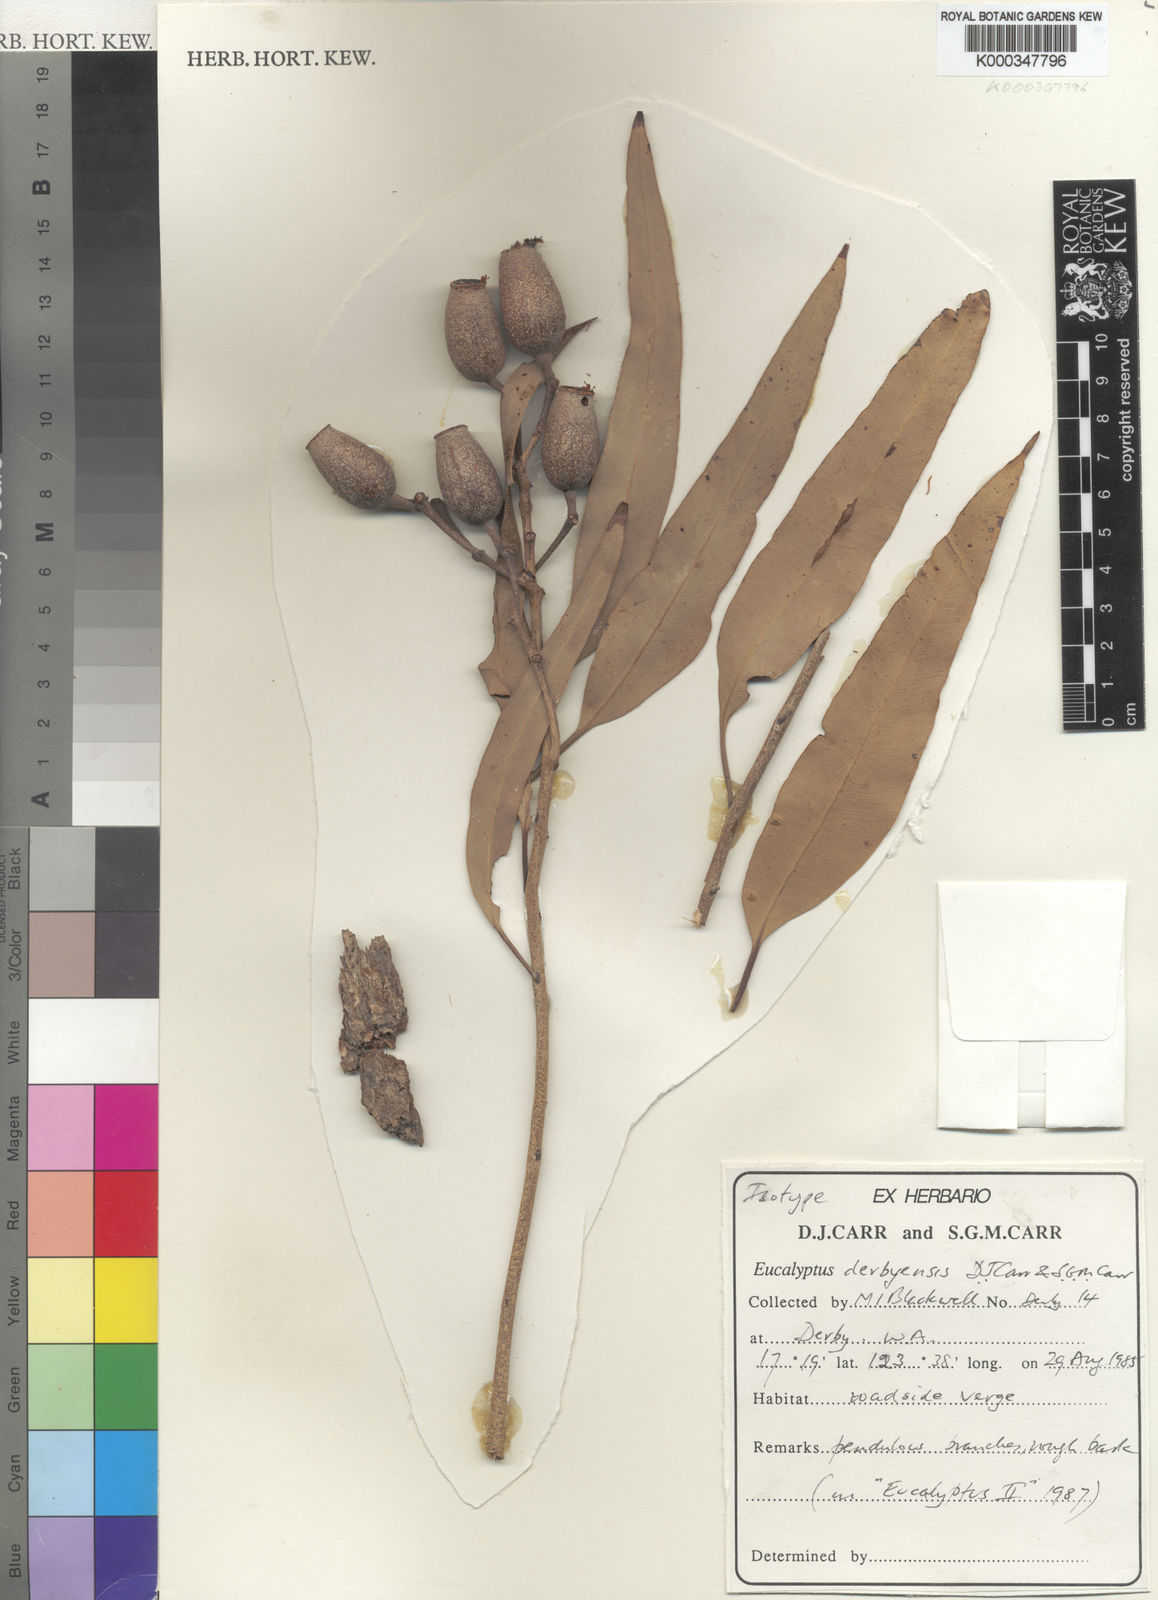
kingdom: Plantae
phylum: Tracheophyta
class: Magnoliopsida
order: Myrtales
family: Myrtaceae
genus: Corymbia
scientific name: Corymbia polycarpa
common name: Long-fruited-bloodwood
